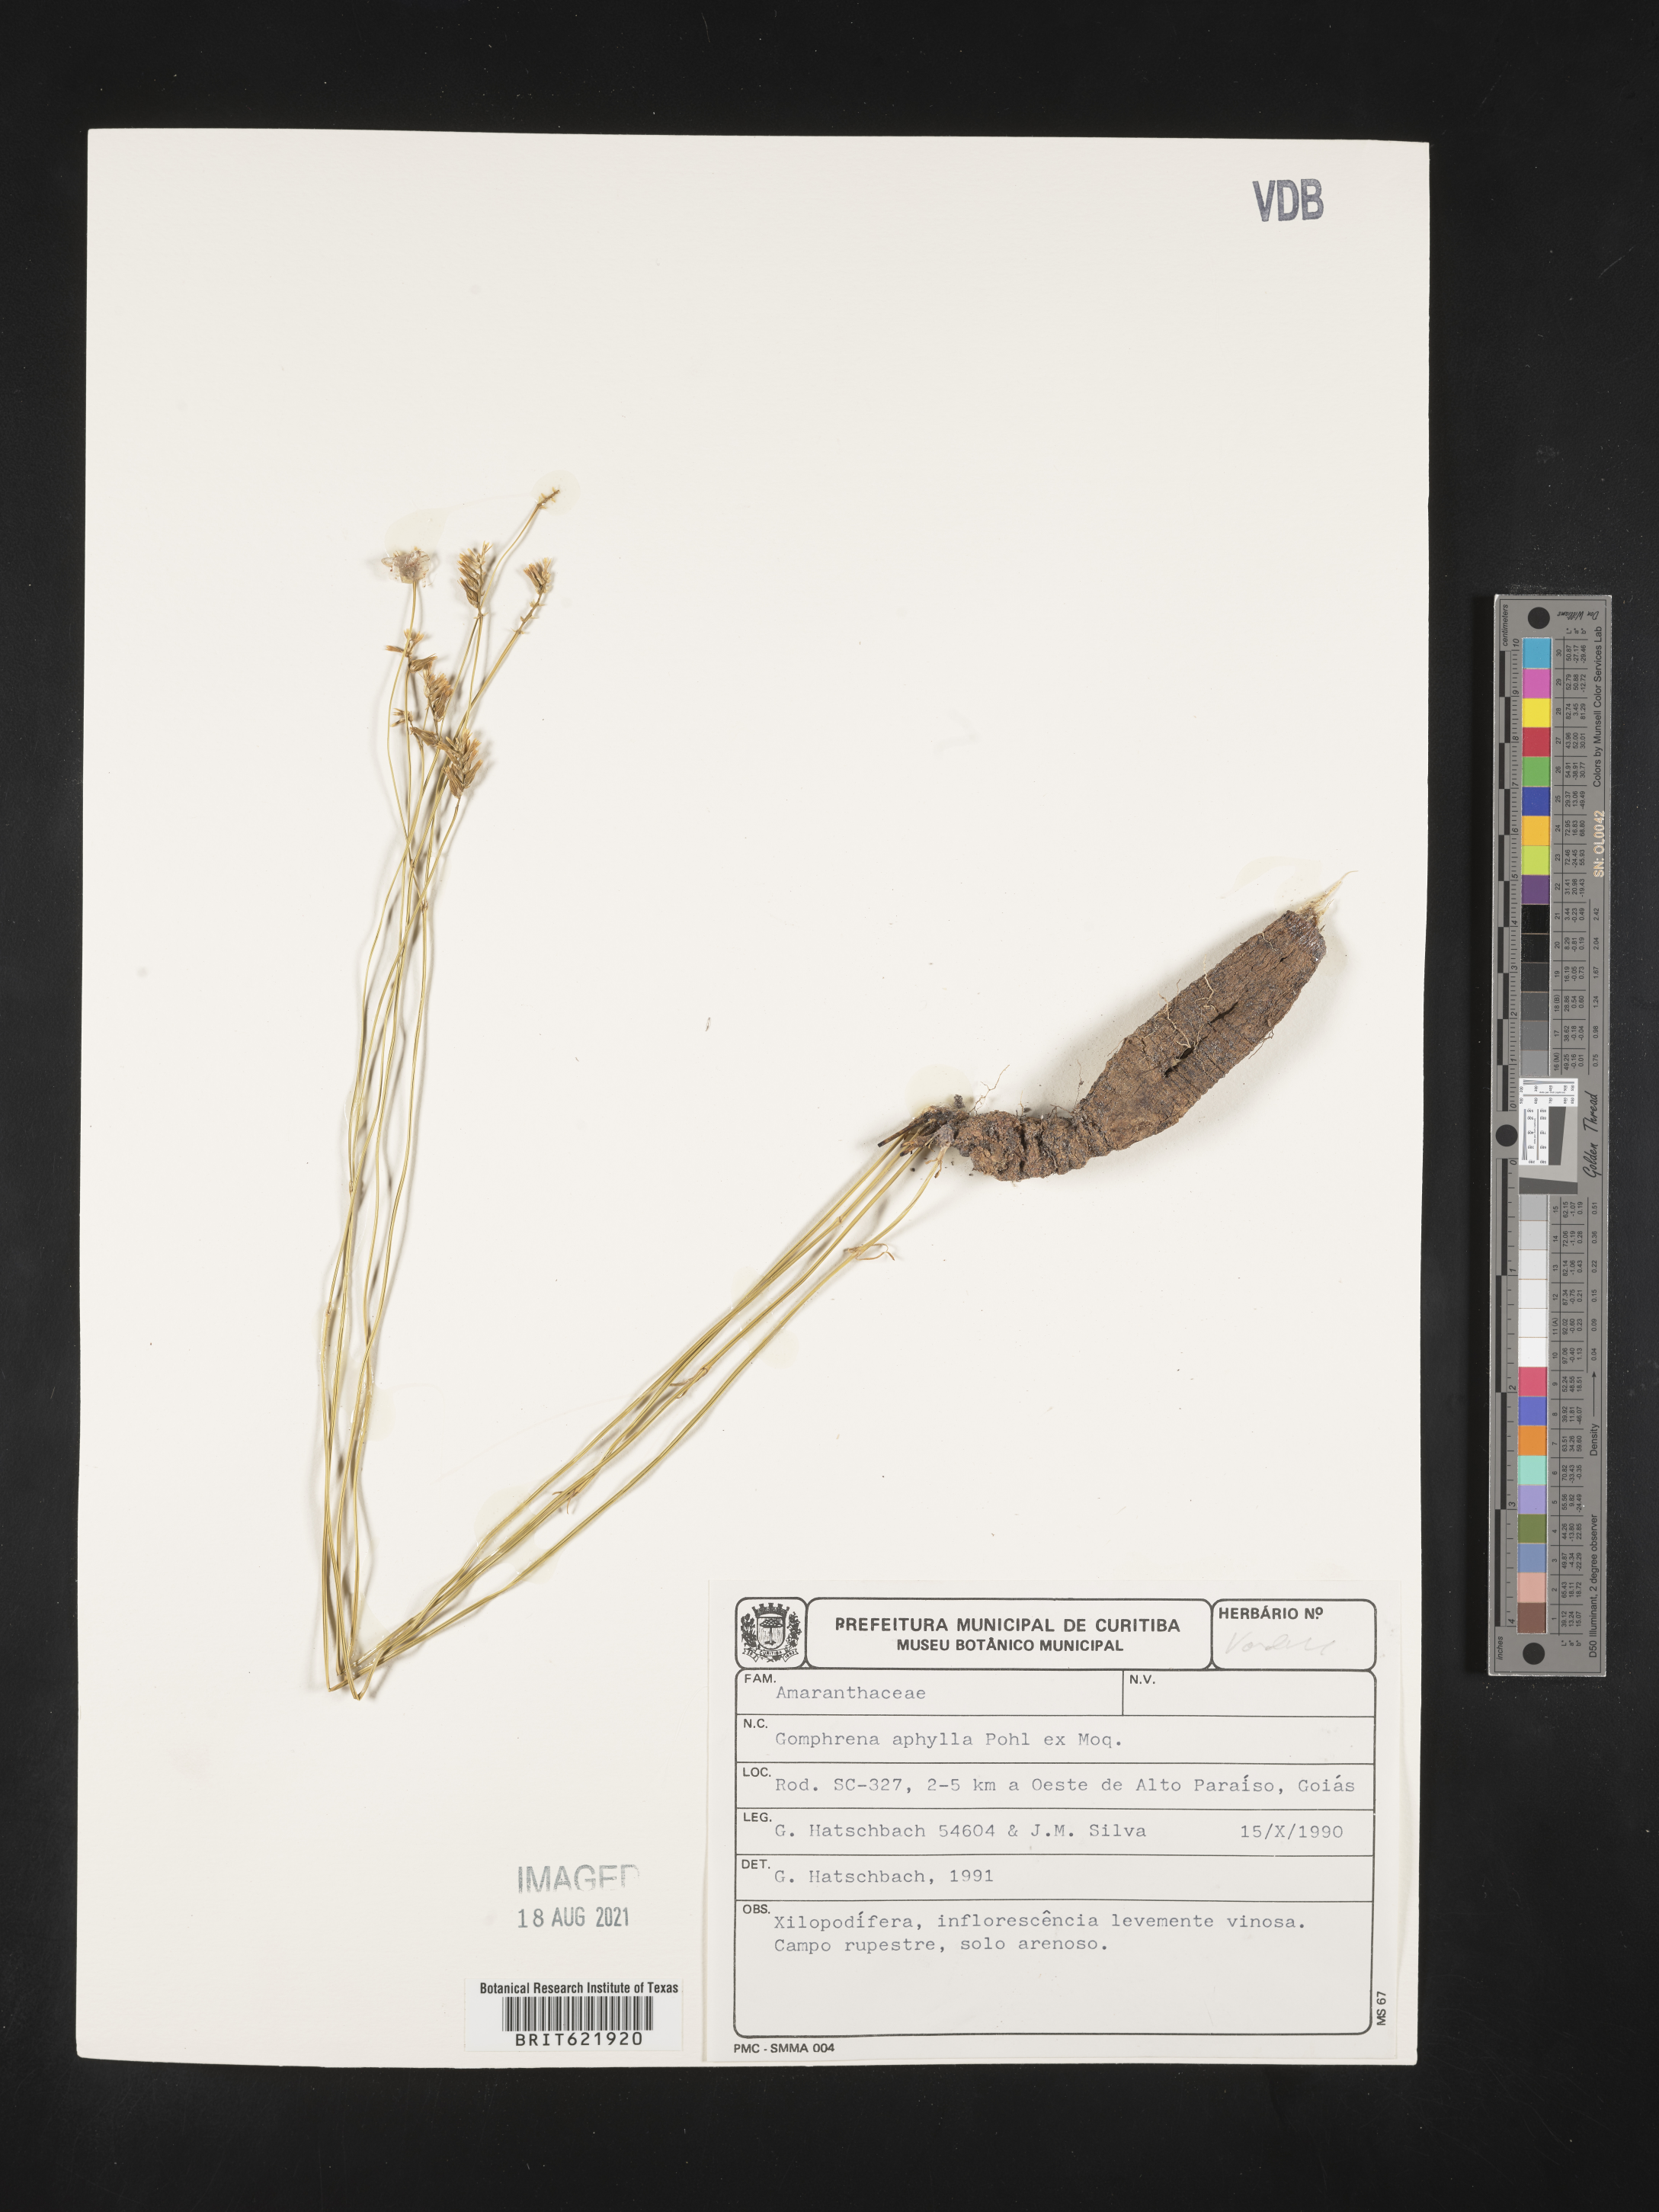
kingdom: Plantae
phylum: Tracheophyta
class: Magnoliopsida
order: Caryophyllales
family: Amaranthaceae
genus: Gomphrena
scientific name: Gomphrena aphylla
